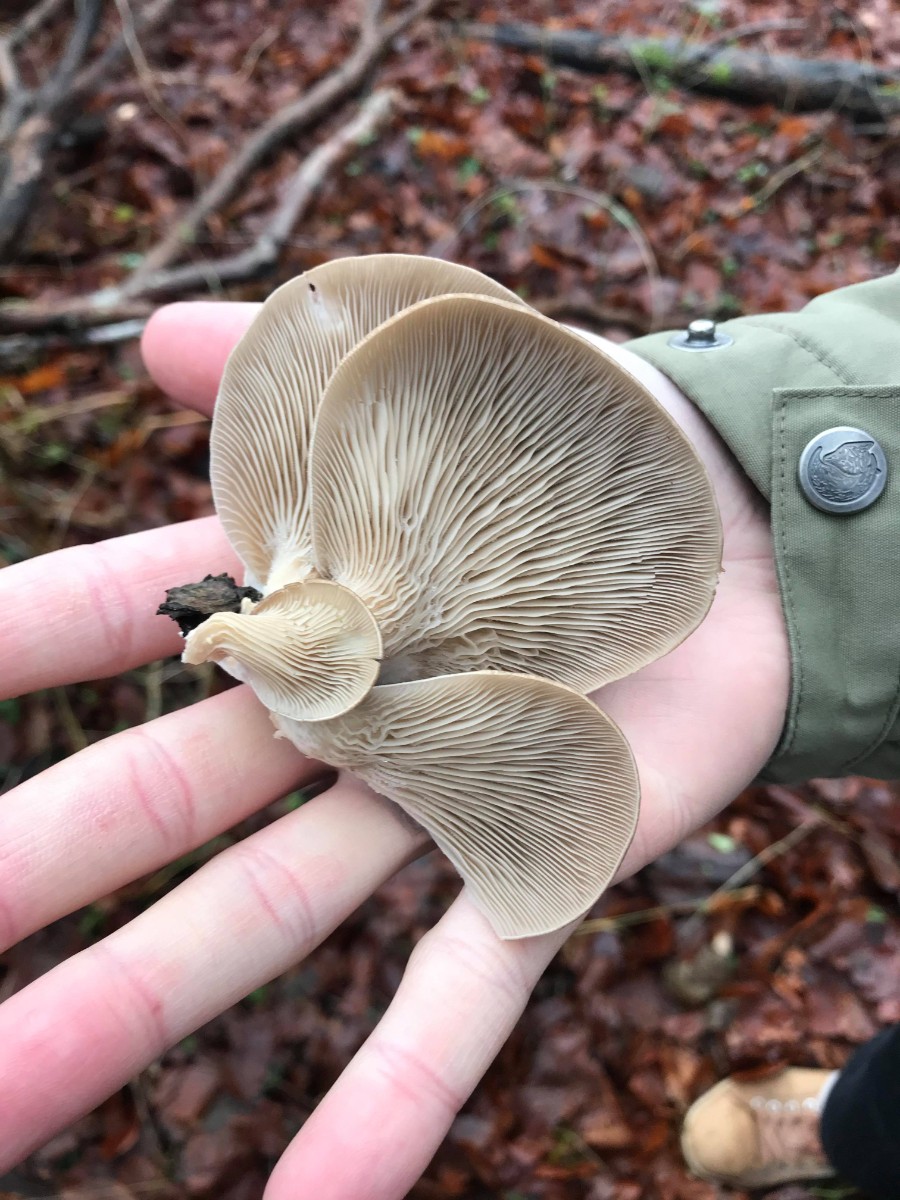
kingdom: Fungi
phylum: Basidiomycota
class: Agaricomycetes
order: Agaricales
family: Pleurotaceae
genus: Pleurotus
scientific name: Pleurotus ostreatus
